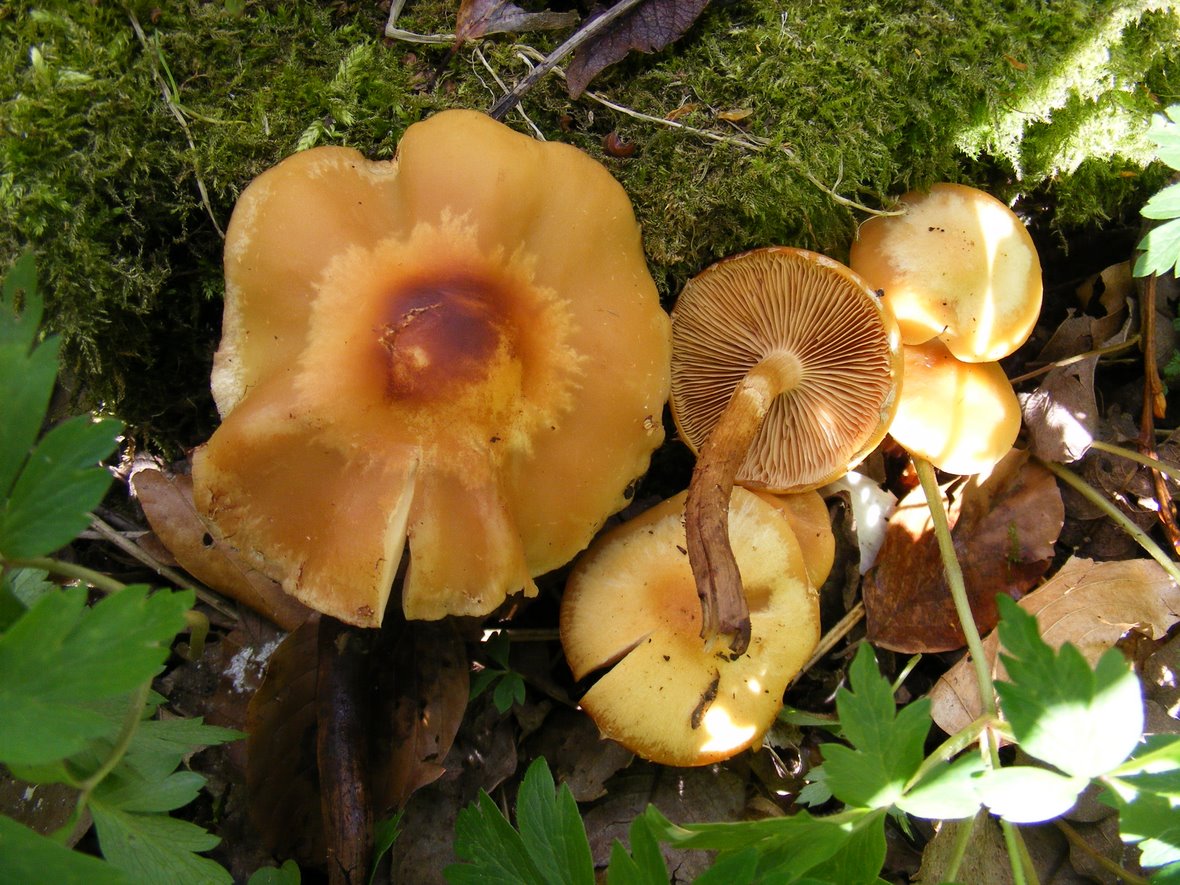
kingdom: Fungi
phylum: Basidiomycota
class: Agaricomycetes
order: Agaricales
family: Strophariaceae
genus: Kuehneromyces
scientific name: Kuehneromyces mutabilis
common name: foranderlig skælhat
